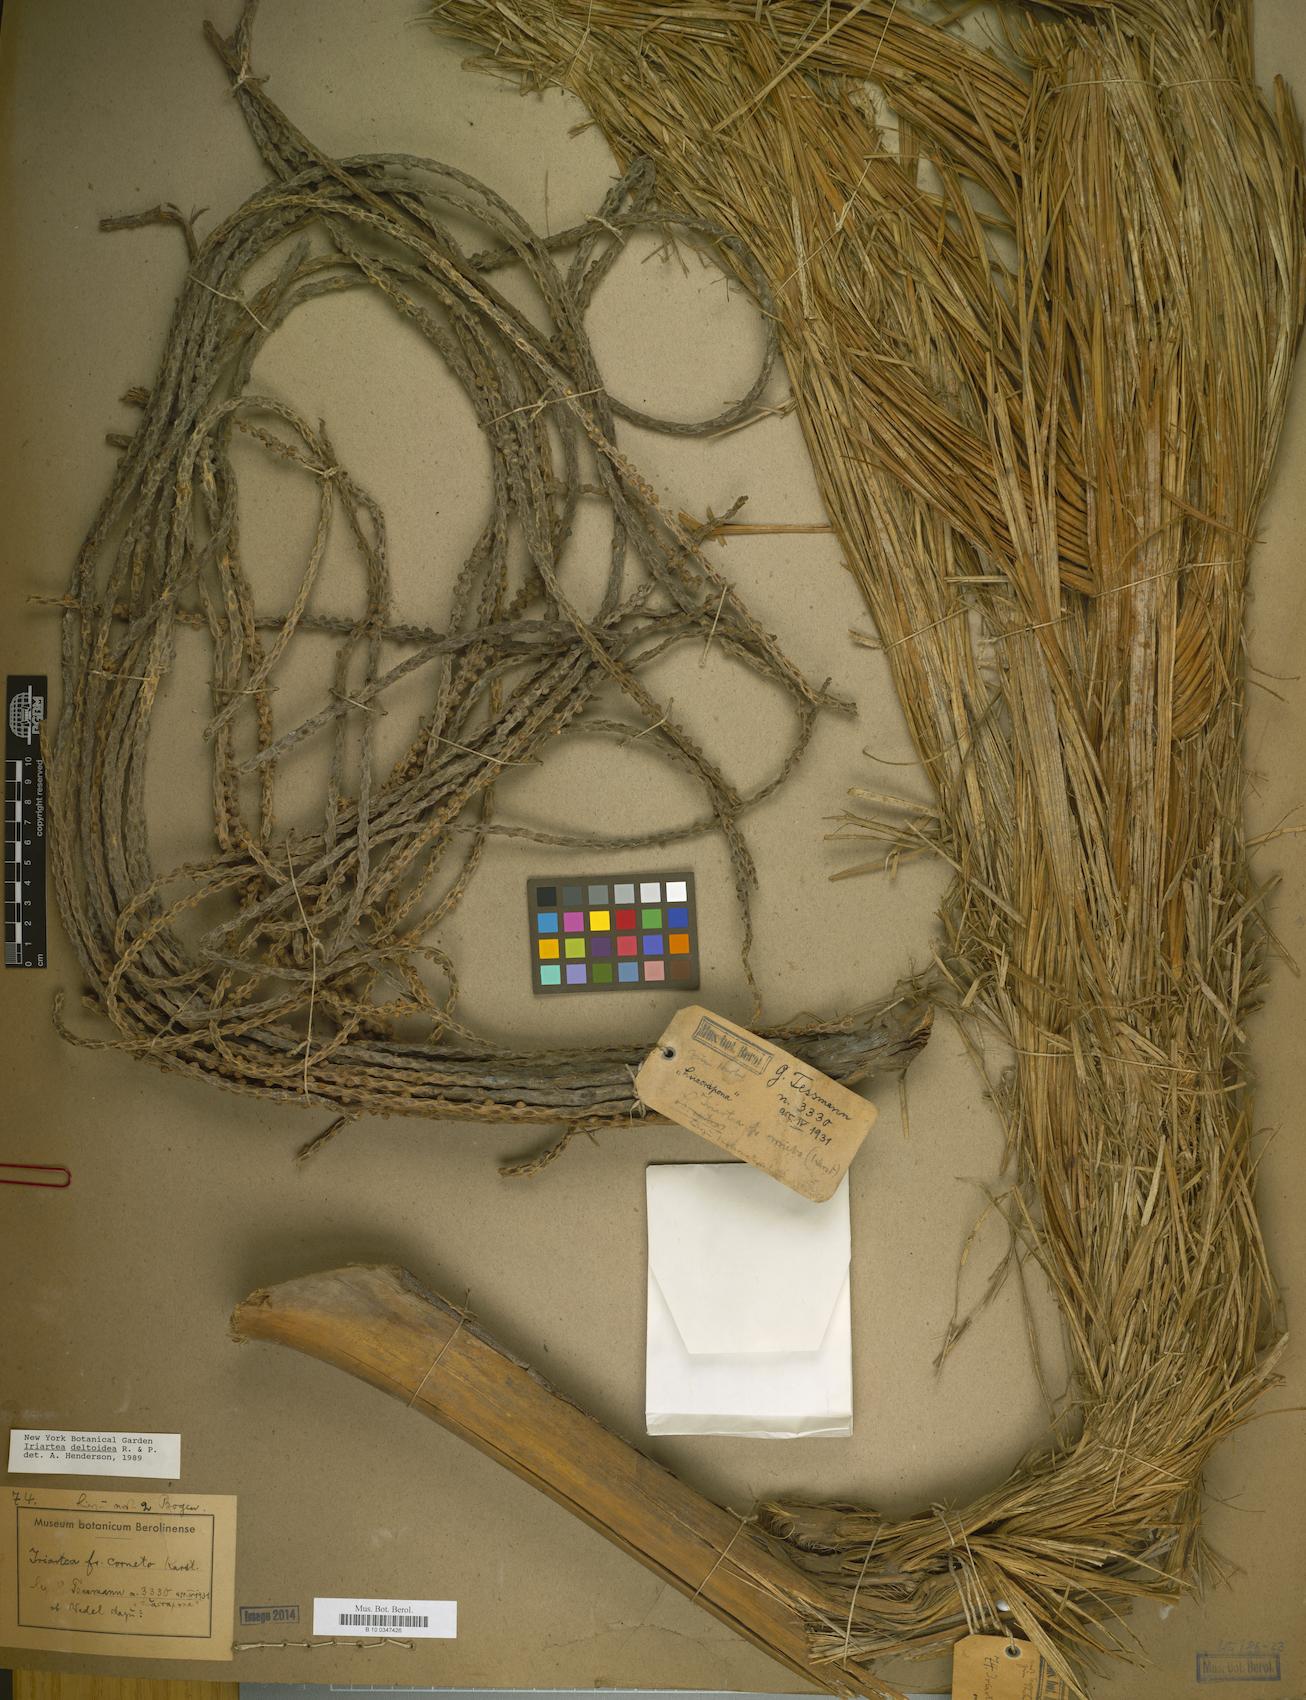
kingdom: Plantae
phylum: Tracheophyta
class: Liliopsida
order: Arecales
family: Arecaceae
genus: Iriartea
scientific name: Iriartea deltoidea
